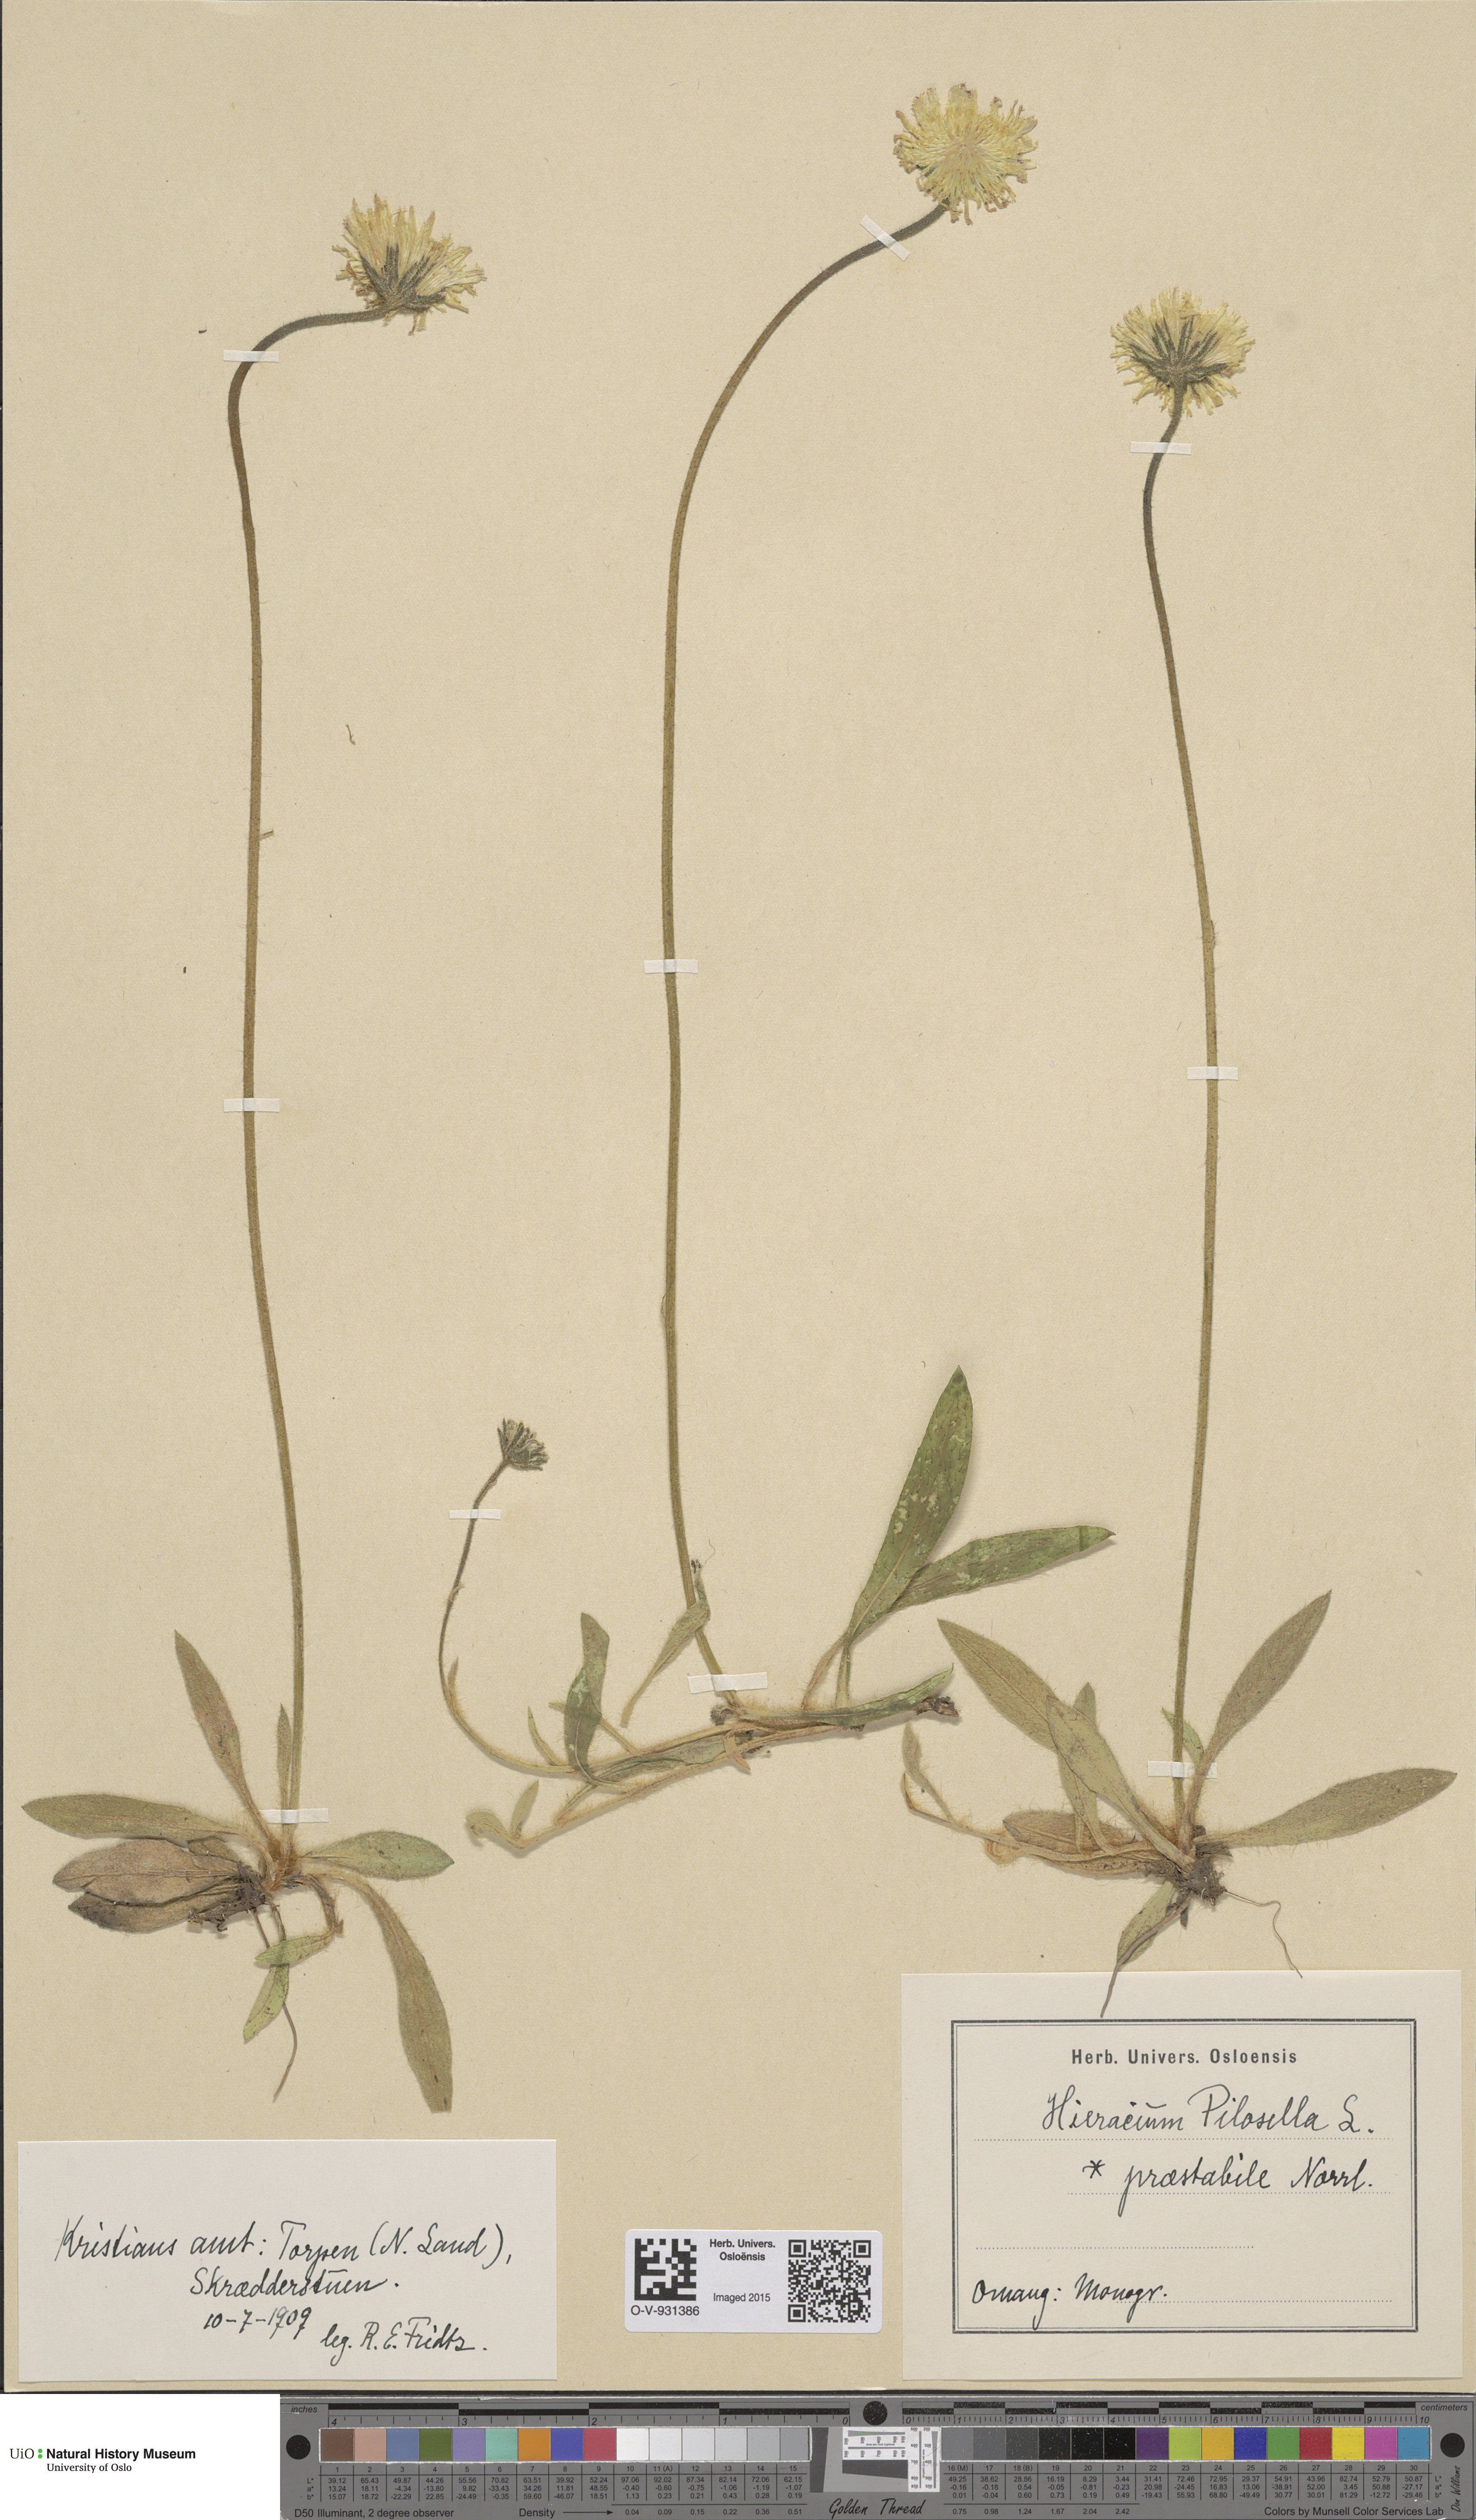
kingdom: Plantae
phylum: Tracheophyta
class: Magnoliopsida
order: Asterales
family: Asteraceae
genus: Pilosella
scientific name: Pilosella officinarum
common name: Mouse-ear hawkweed
